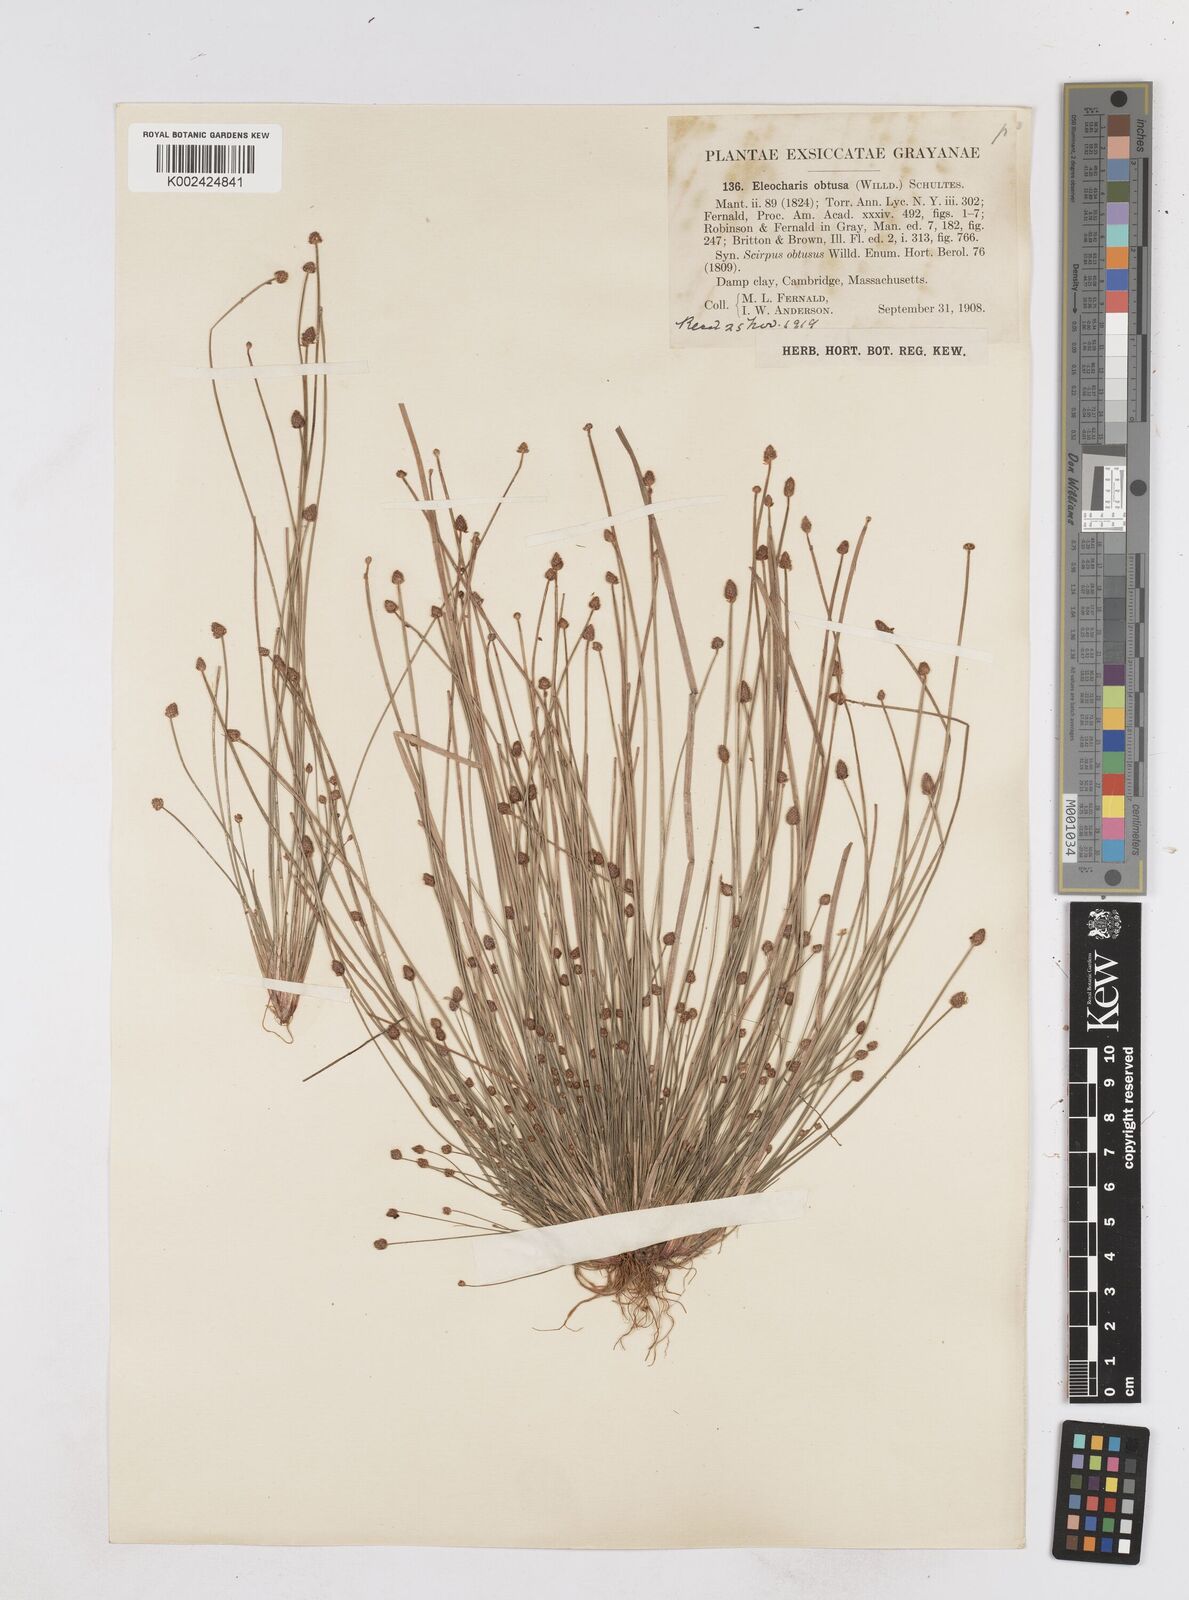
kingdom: Plantae
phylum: Tracheophyta
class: Liliopsida
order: Poales
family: Cyperaceae
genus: Eleocharis
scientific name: Eleocharis obtusa
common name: Blunt spikerush
